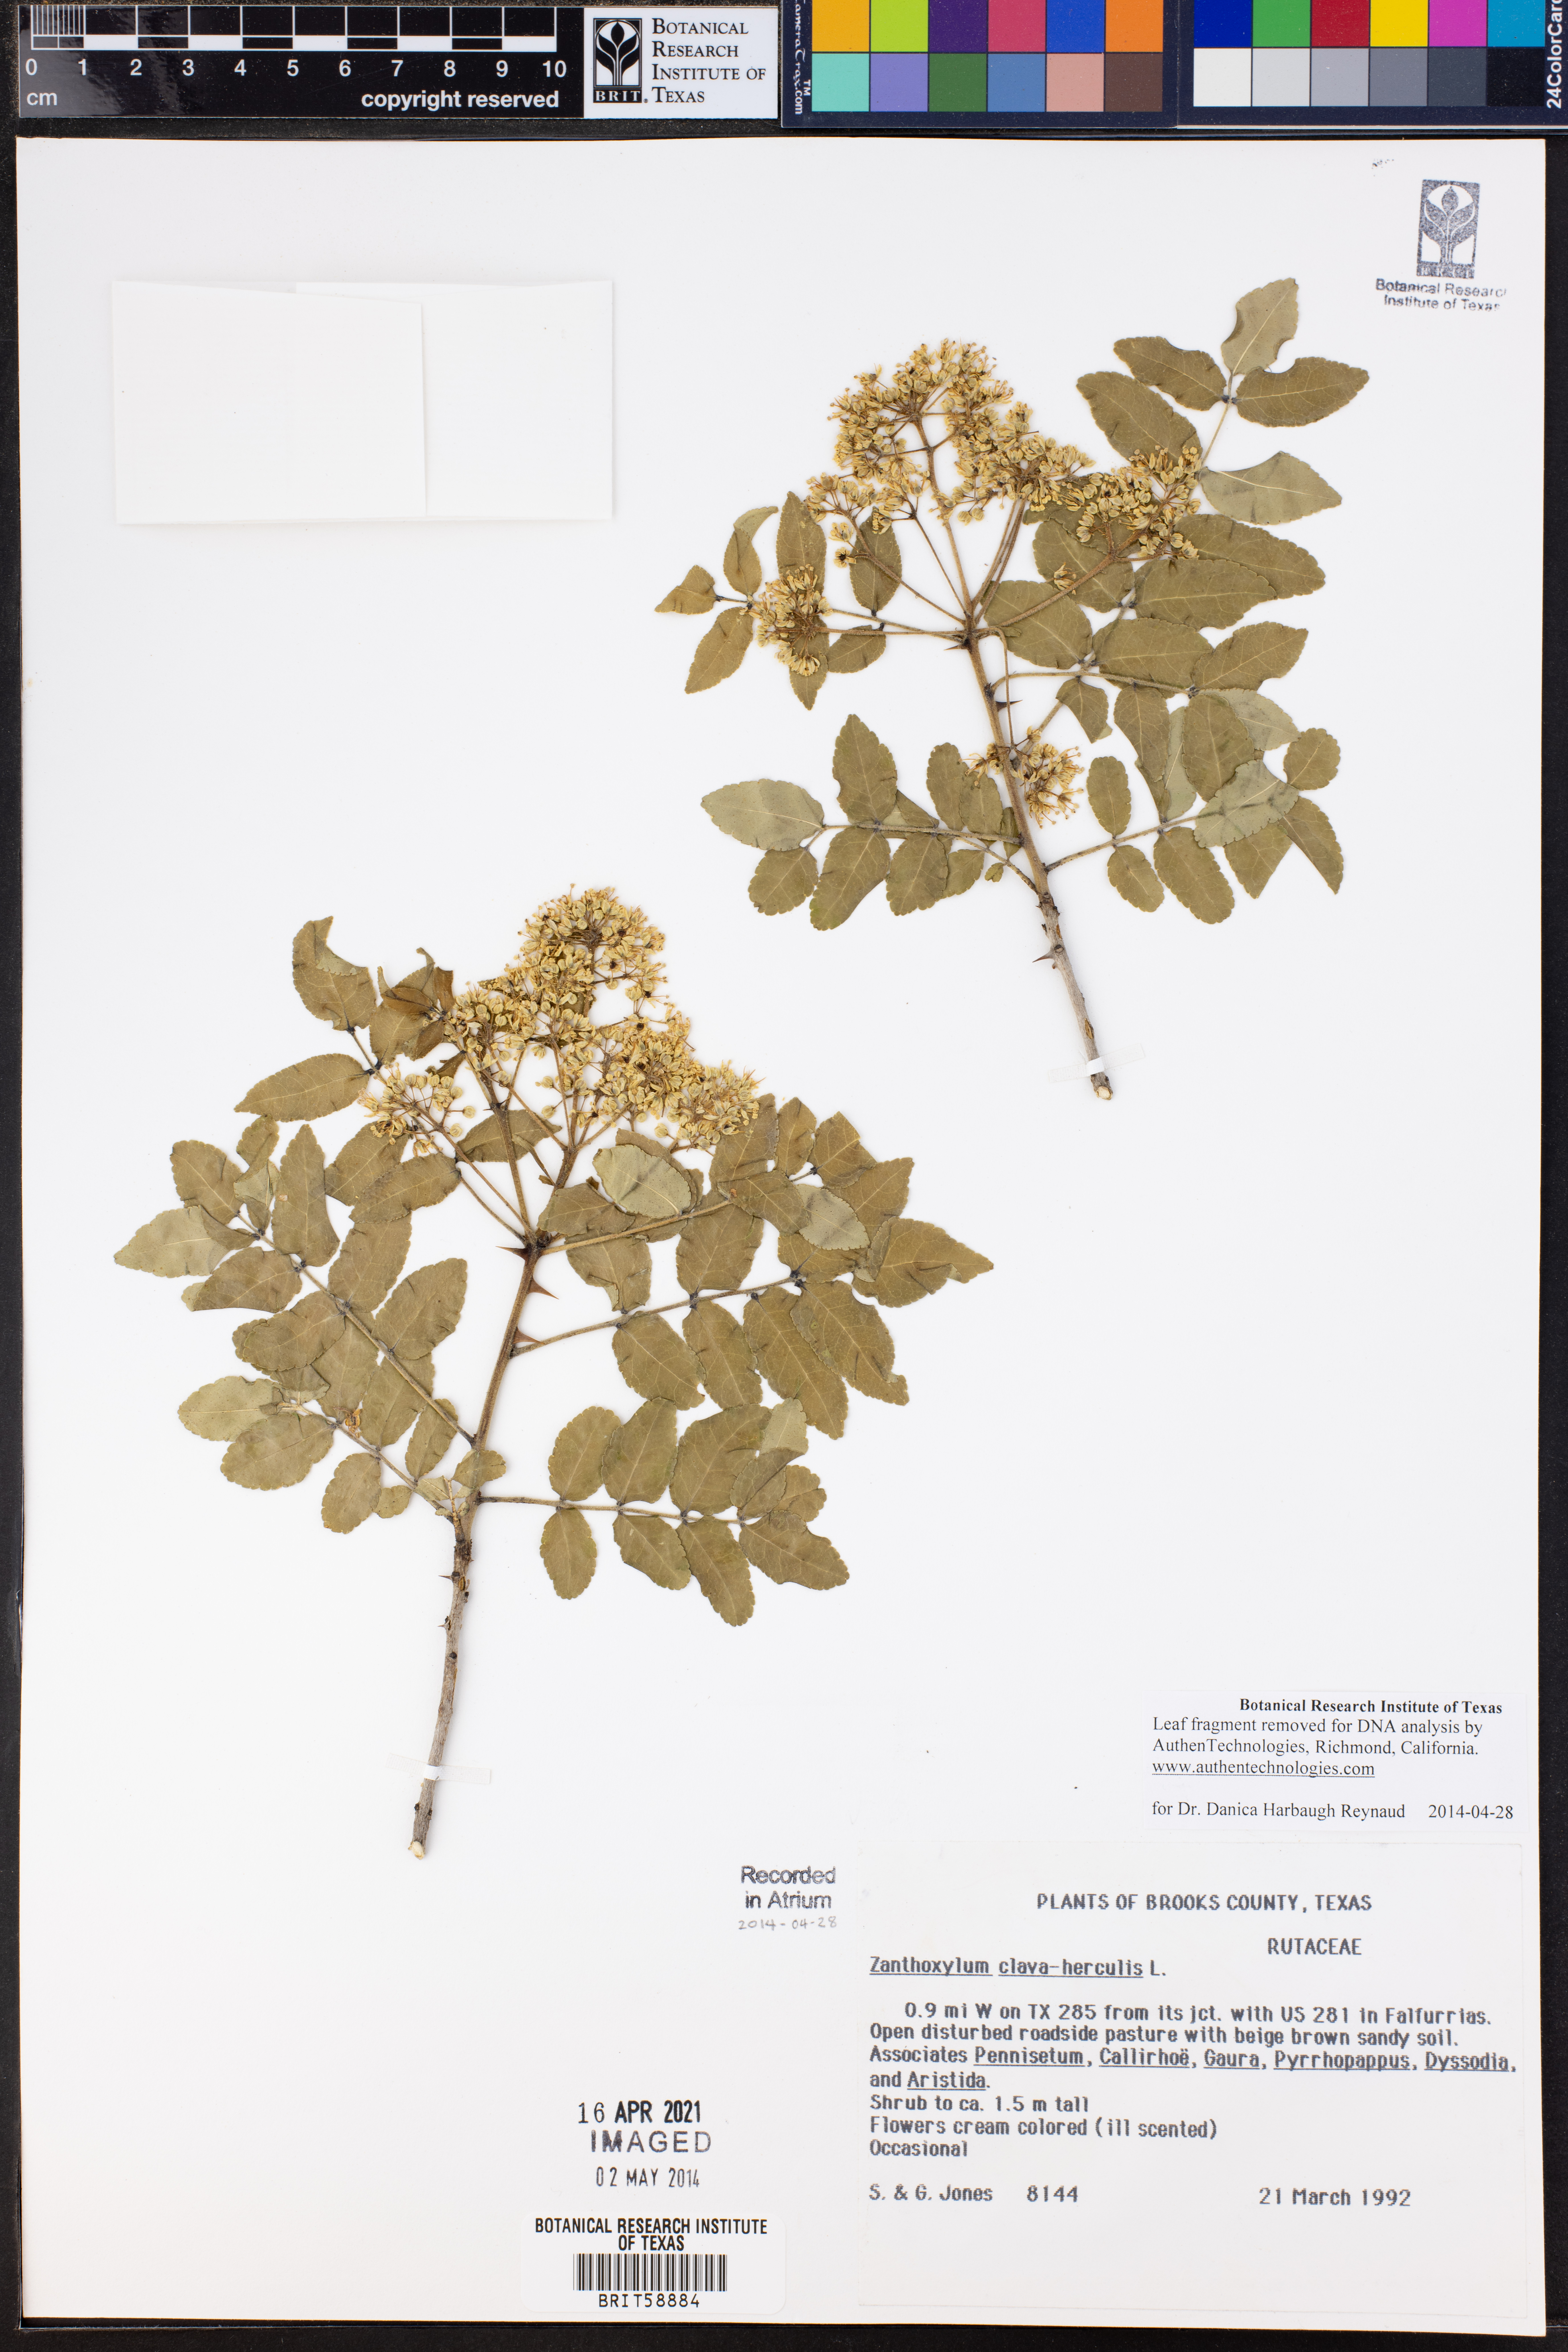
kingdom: Plantae
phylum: Tracheophyta
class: Magnoliopsida
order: Sapindales
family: Rutaceae
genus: Zanthoxylum
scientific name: Zanthoxylum avicennae
